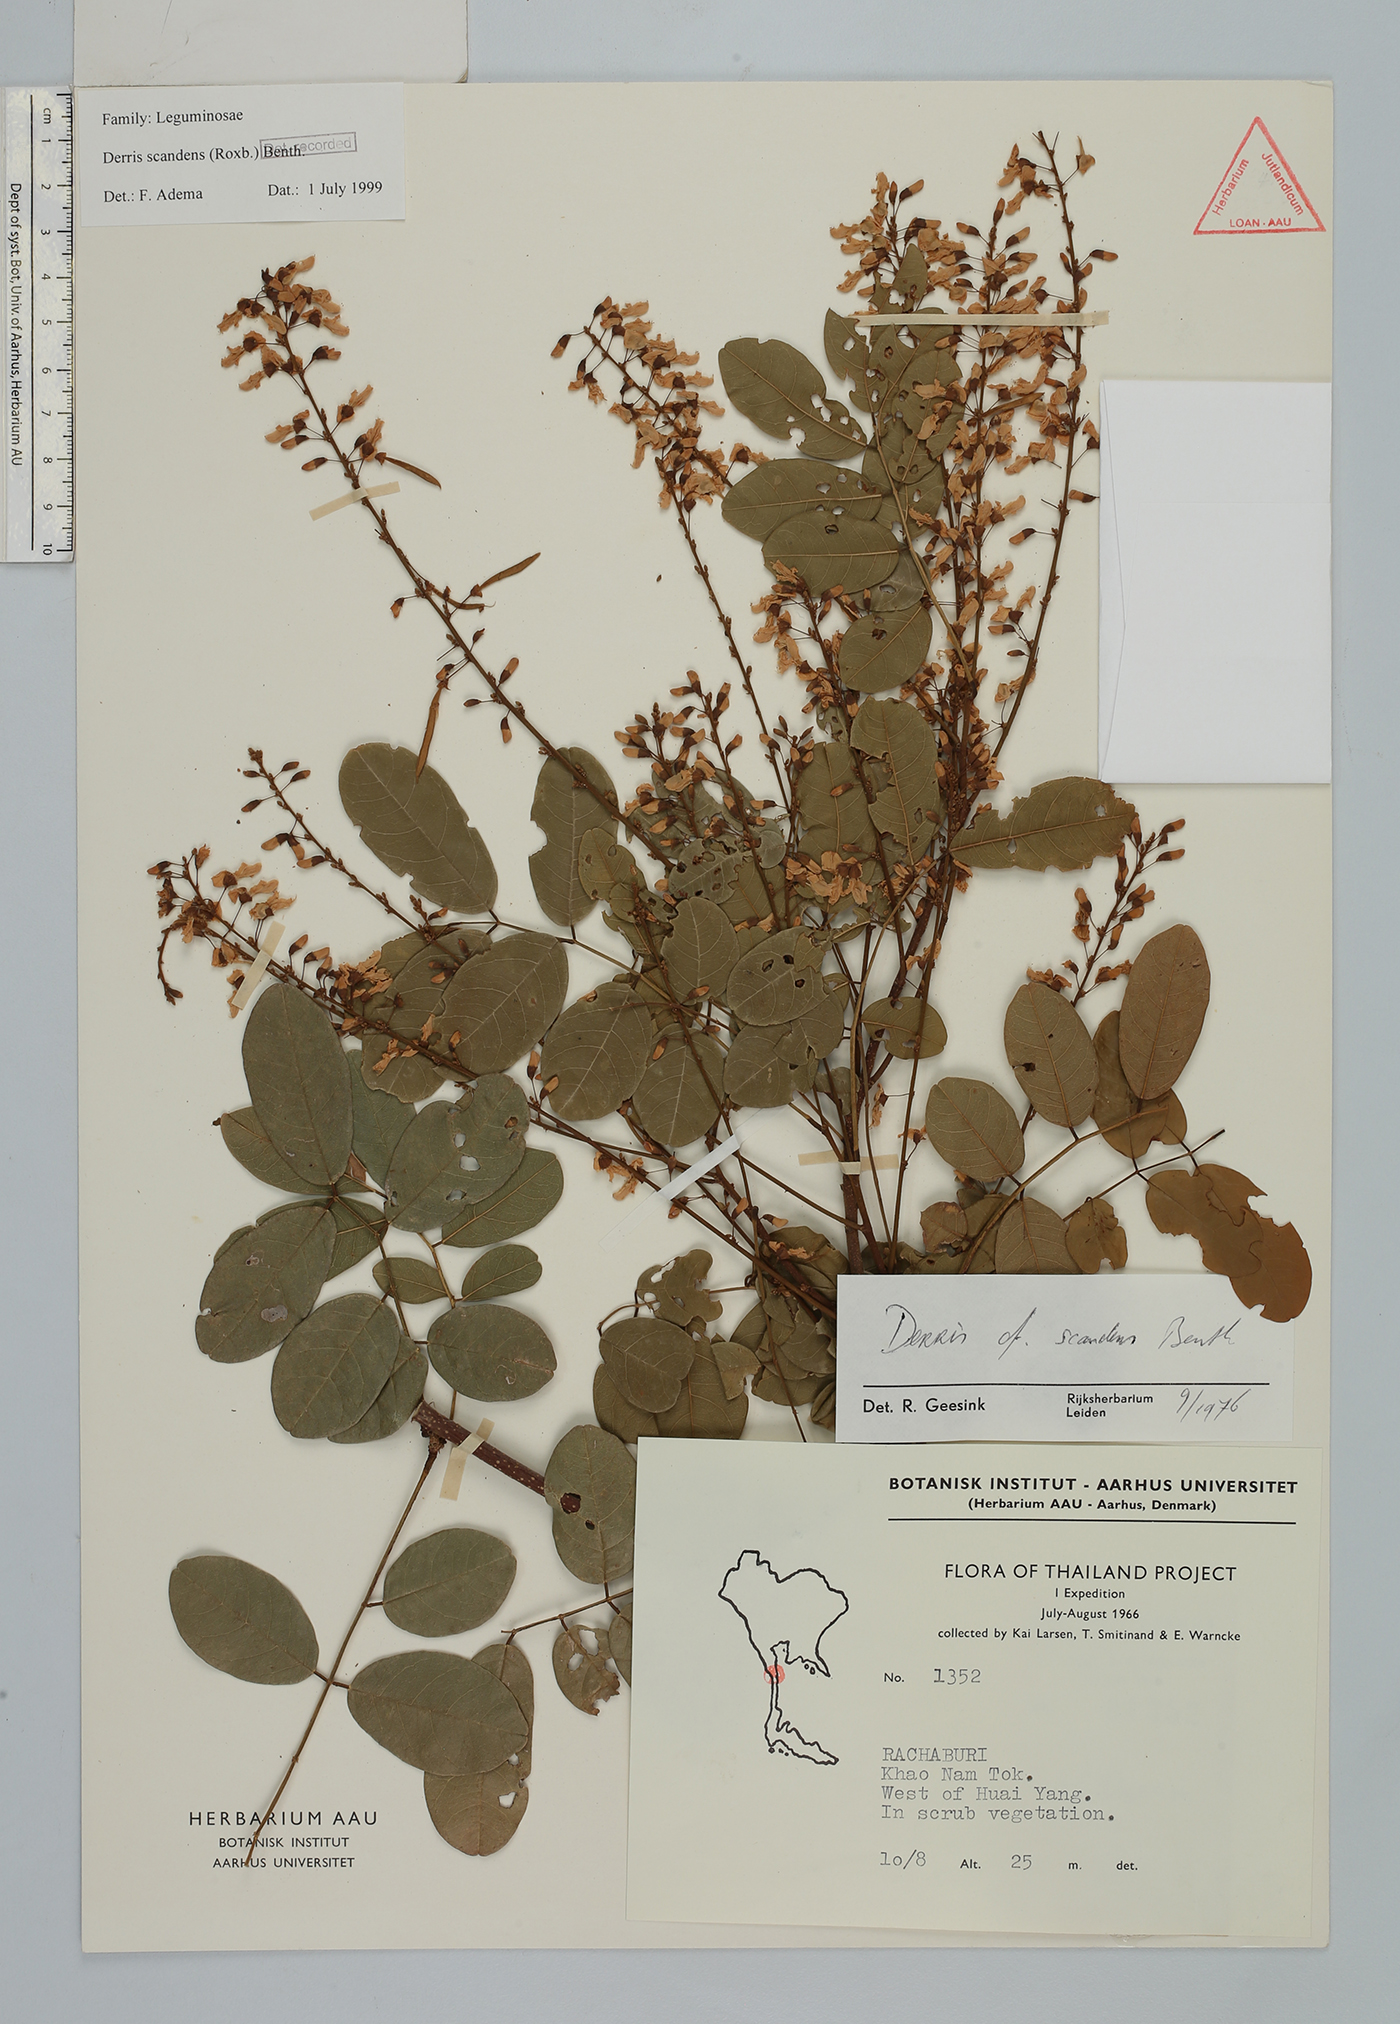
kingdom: Plantae
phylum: Tracheophyta
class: Magnoliopsida
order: Fabales
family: Fabaceae
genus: Brachypterum
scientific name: Brachypterum scandens
